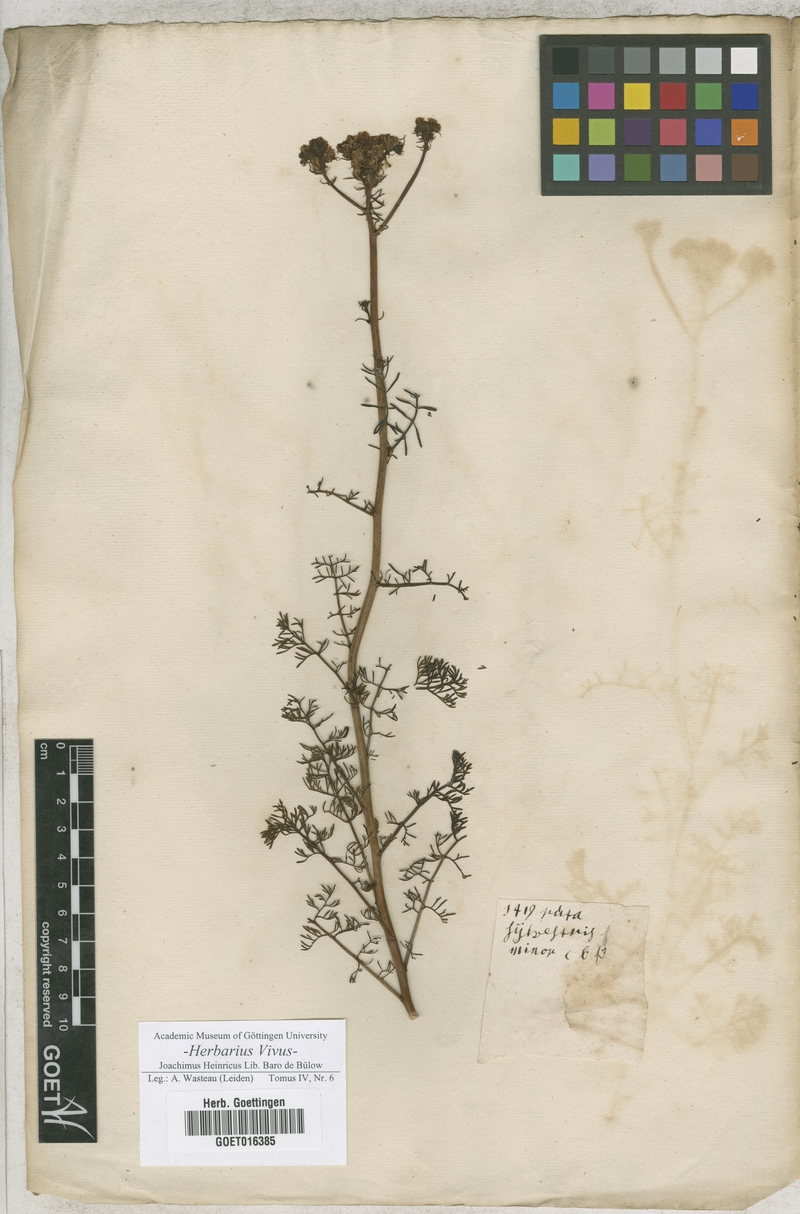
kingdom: Plantae
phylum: Tracheophyta
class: Magnoliopsida
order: Sapindales
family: Rutaceae
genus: Ruta
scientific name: Ruta
